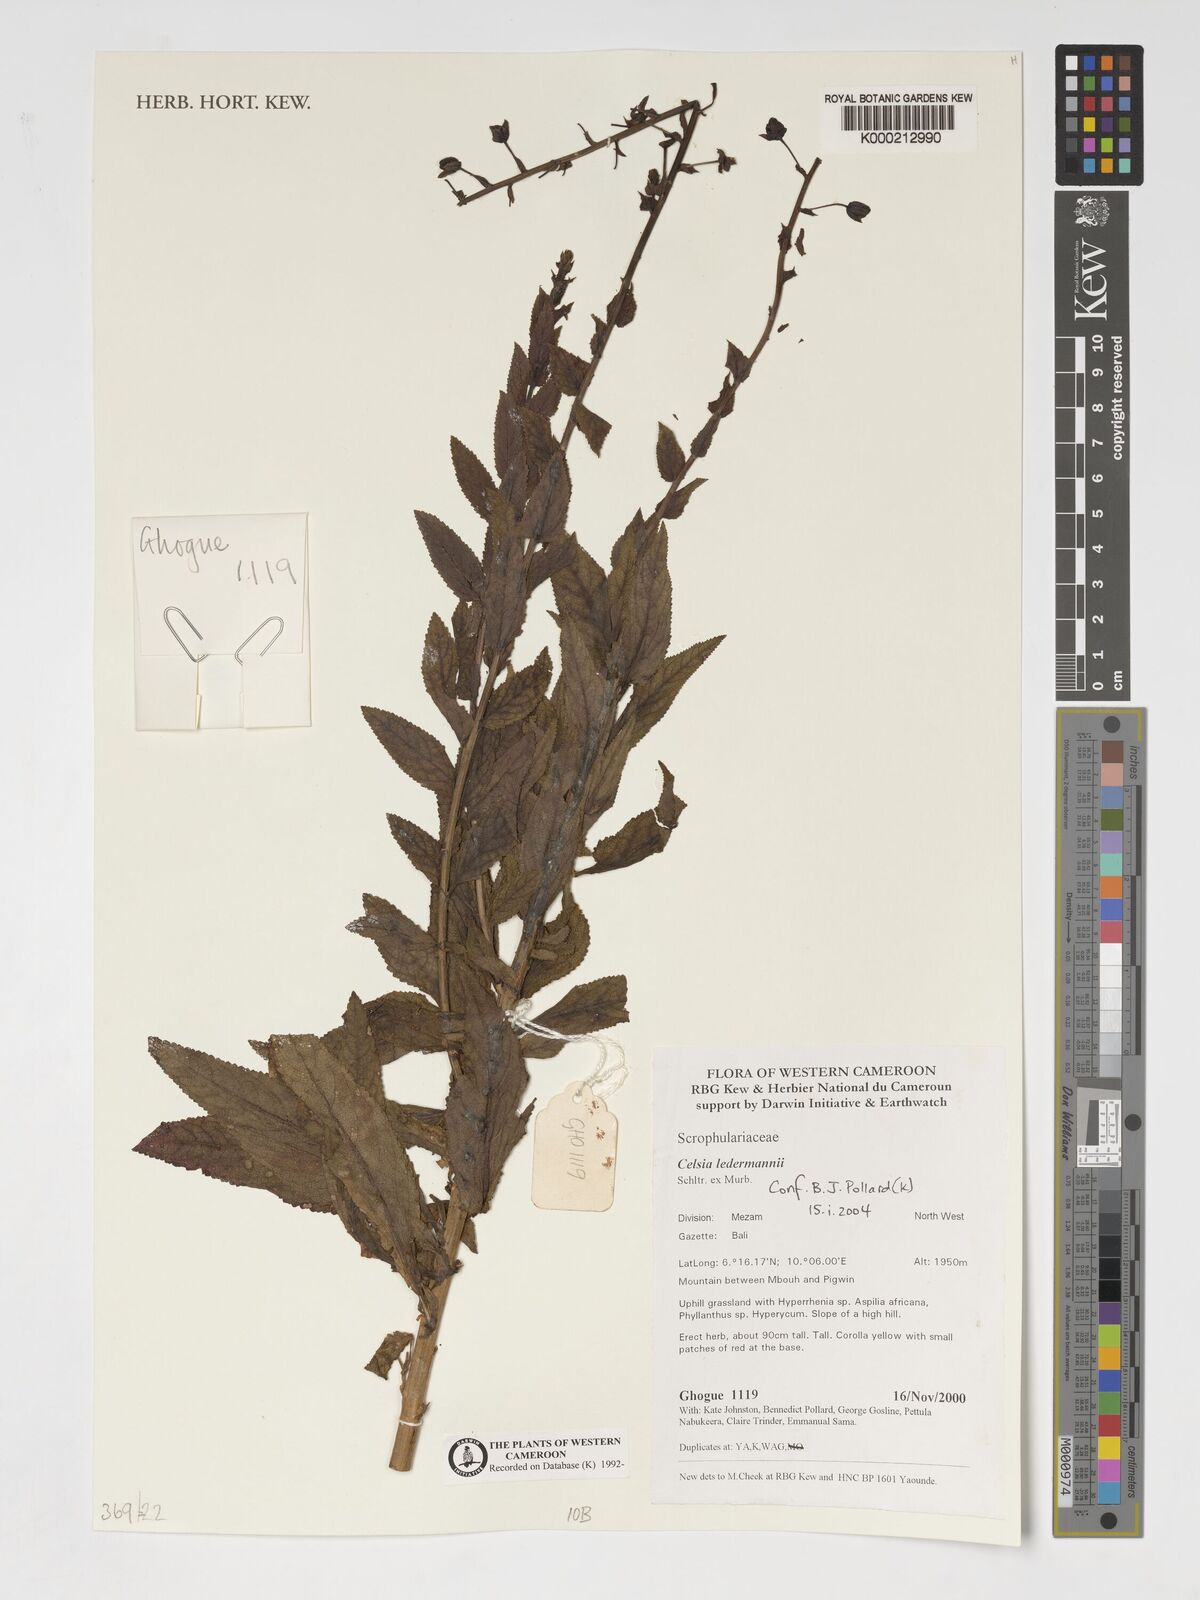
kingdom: Plantae
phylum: Tracheophyta
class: Magnoliopsida
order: Lamiales
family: Scrophulariaceae
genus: Rhabdotosperma
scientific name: Rhabdotosperma ledermannii
